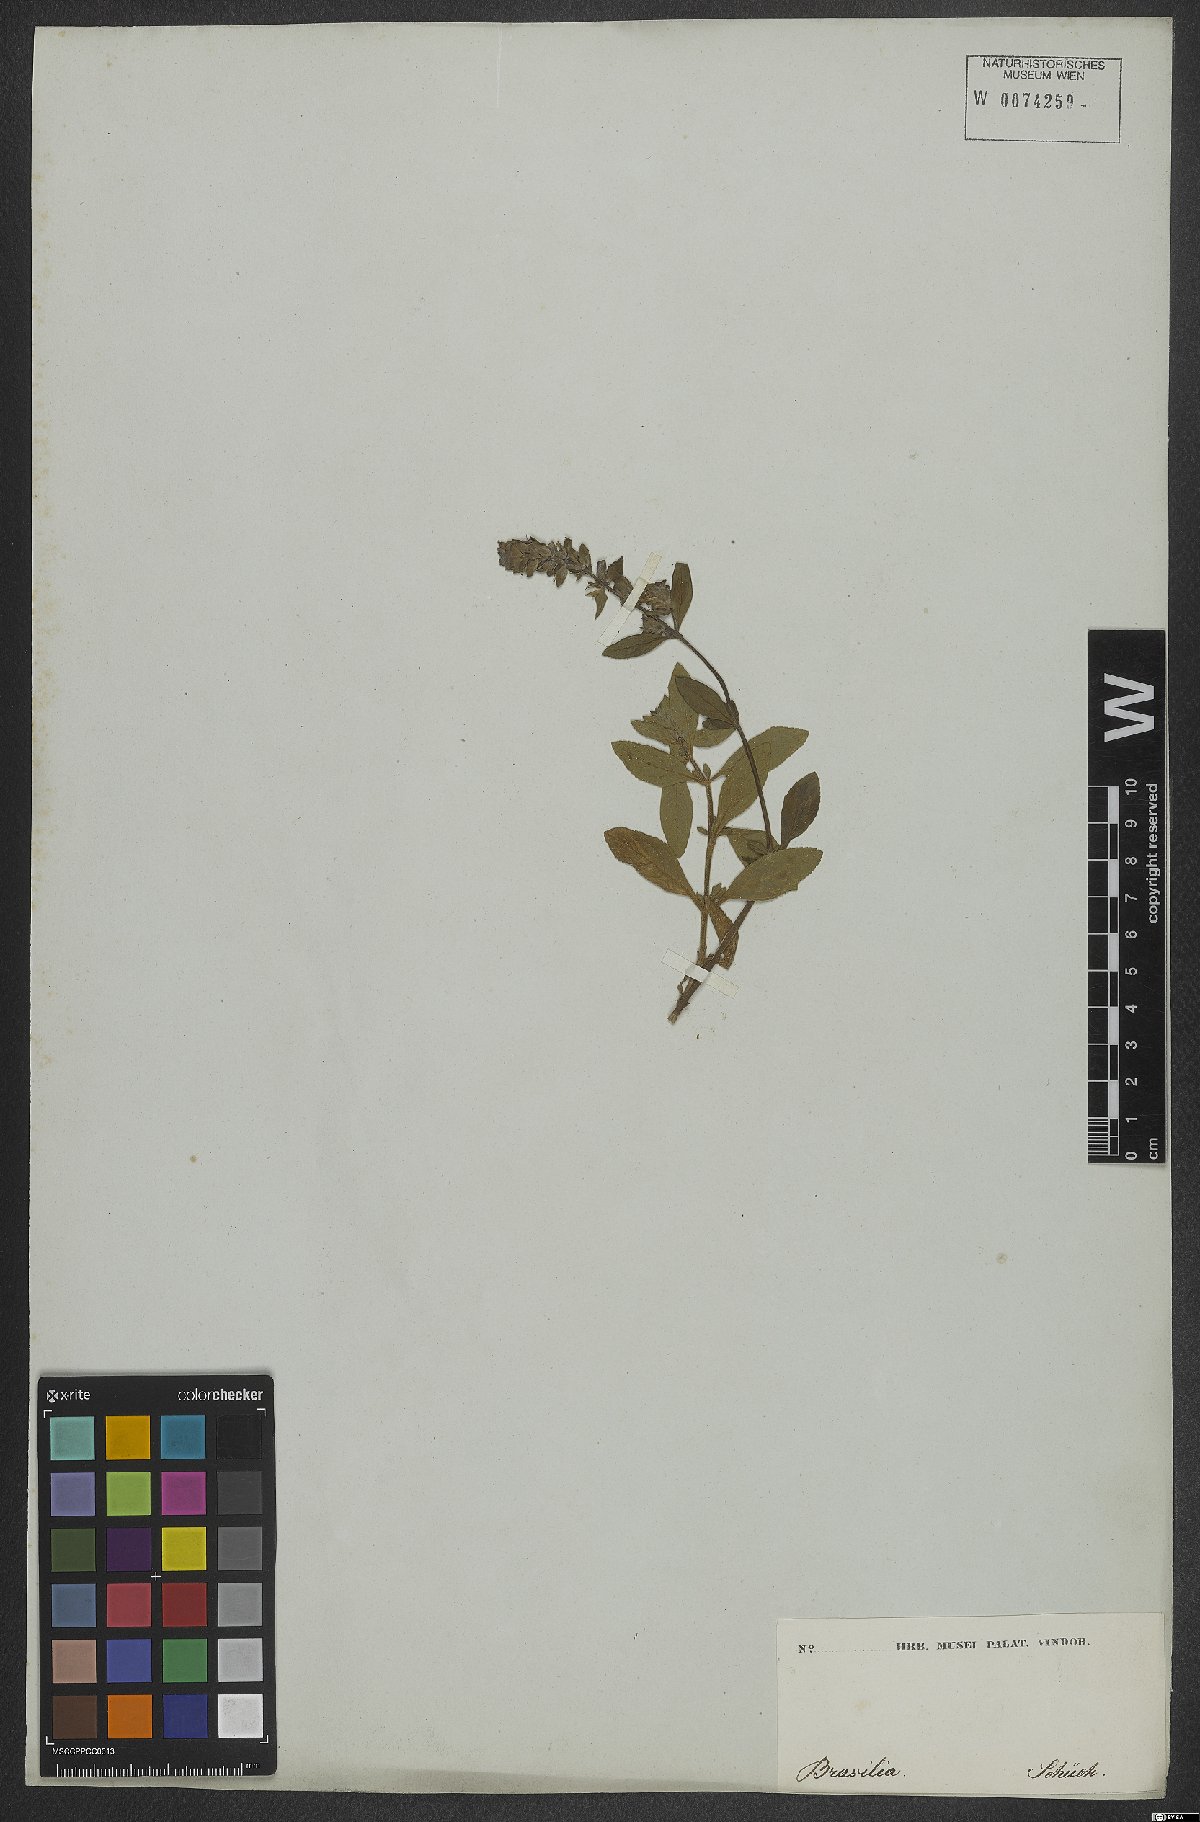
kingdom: Plantae
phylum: Tracheophyta
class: Magnoliopsida
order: Lamiales
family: Plantaginaceae
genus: Matourea
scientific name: Matourea
